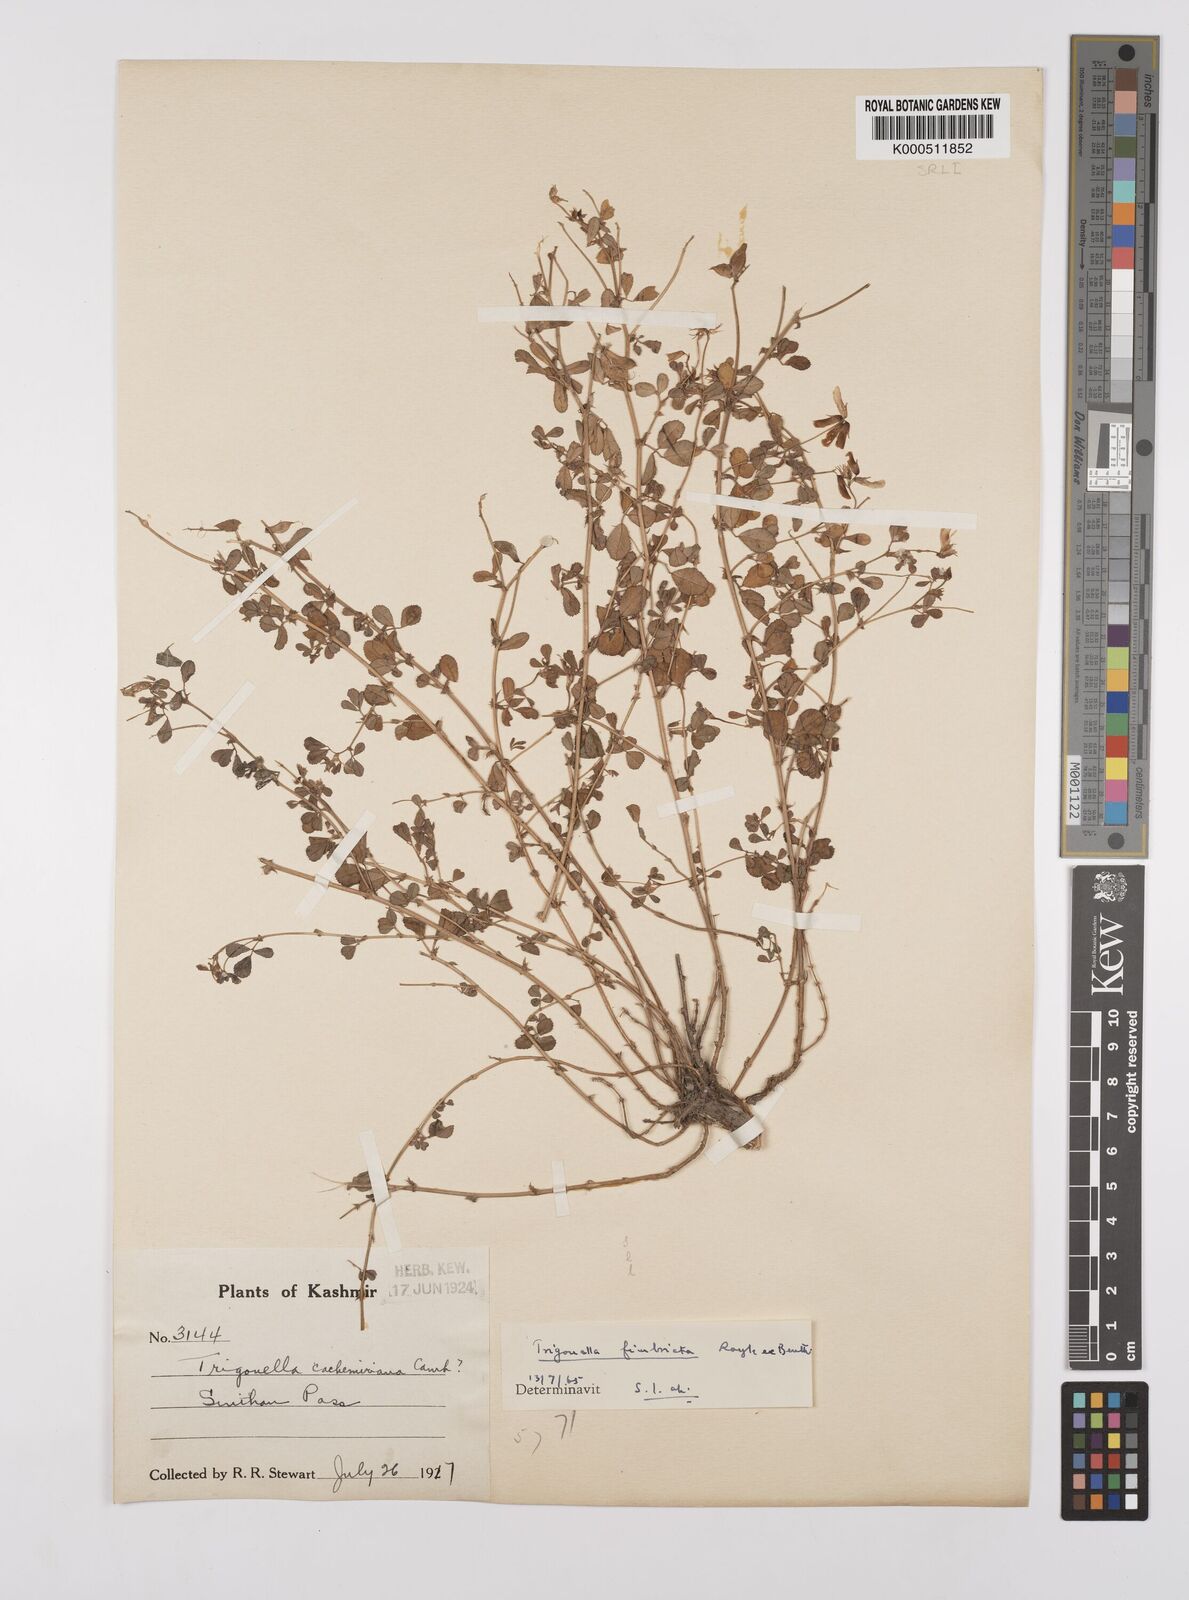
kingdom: Plantae
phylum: Tracheophyta
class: Magnoliopsida
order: Fabales
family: Fabaceae
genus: Trigonella
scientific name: Trigonella emodi
